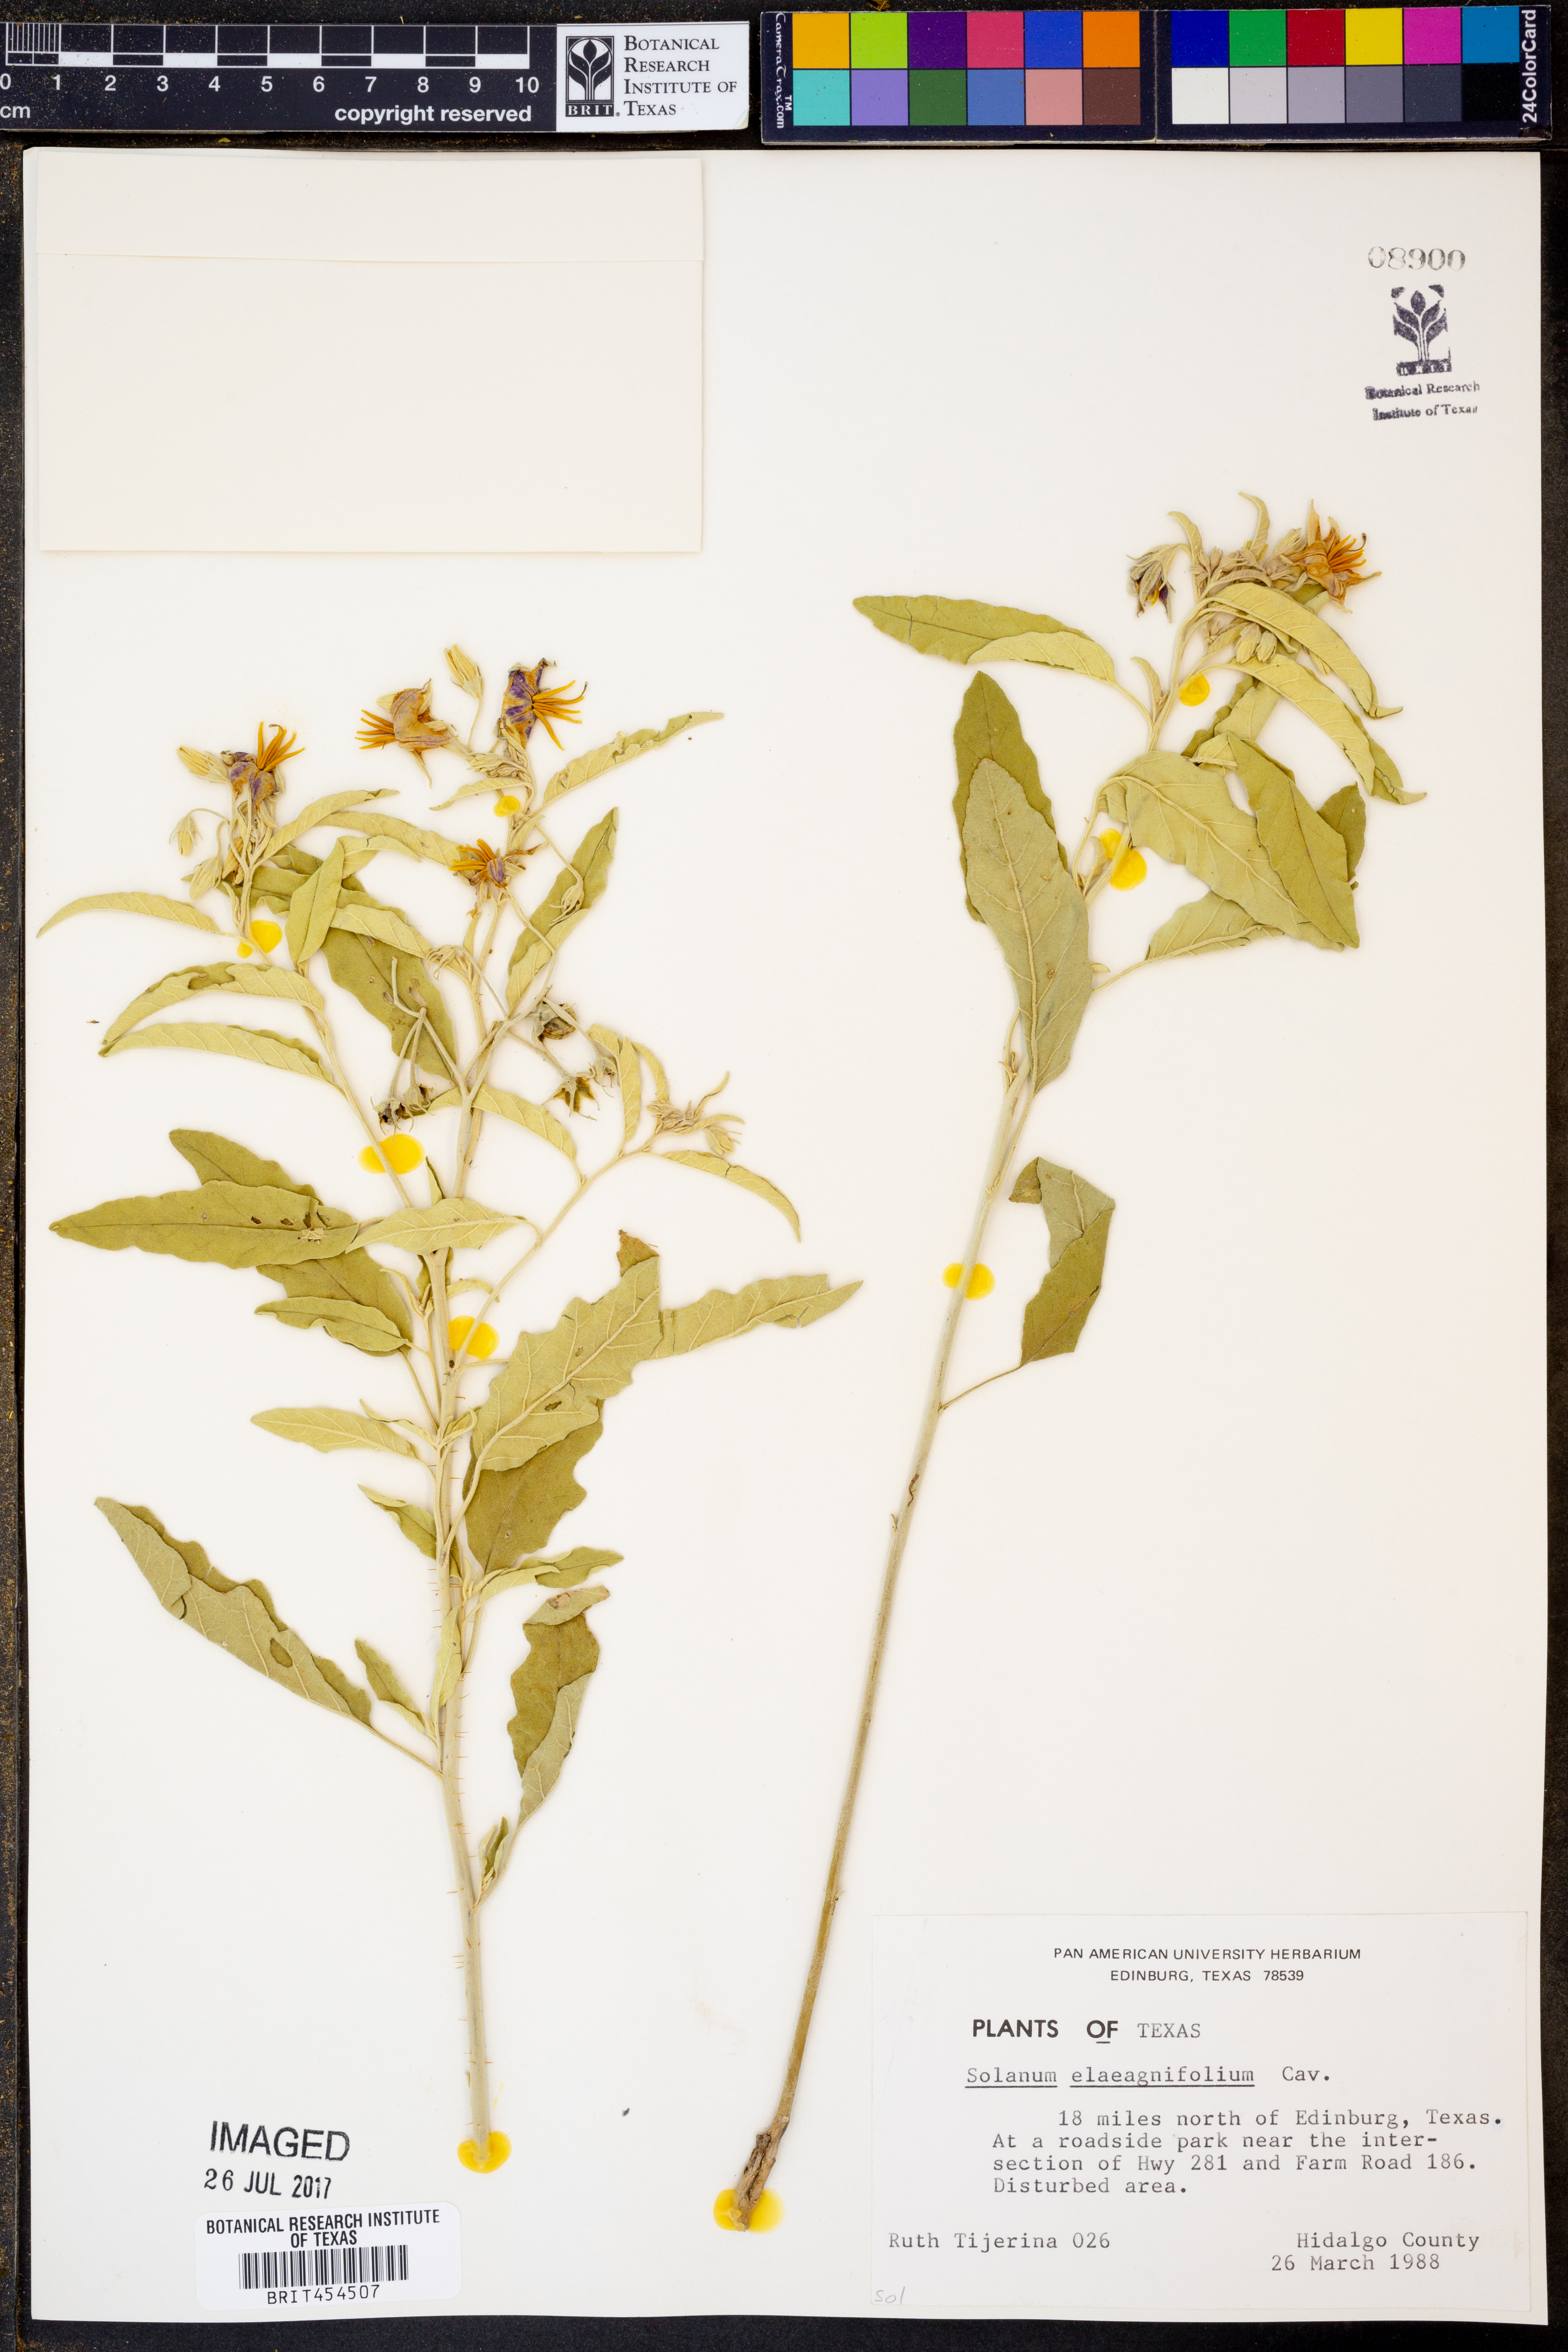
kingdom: Plantae
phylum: Tracheophyta
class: Magnoliopsida
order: Solanales
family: Solanaceae
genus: Solanum
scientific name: Solanum elaeagnifolium
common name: Silverleaf nightshade
